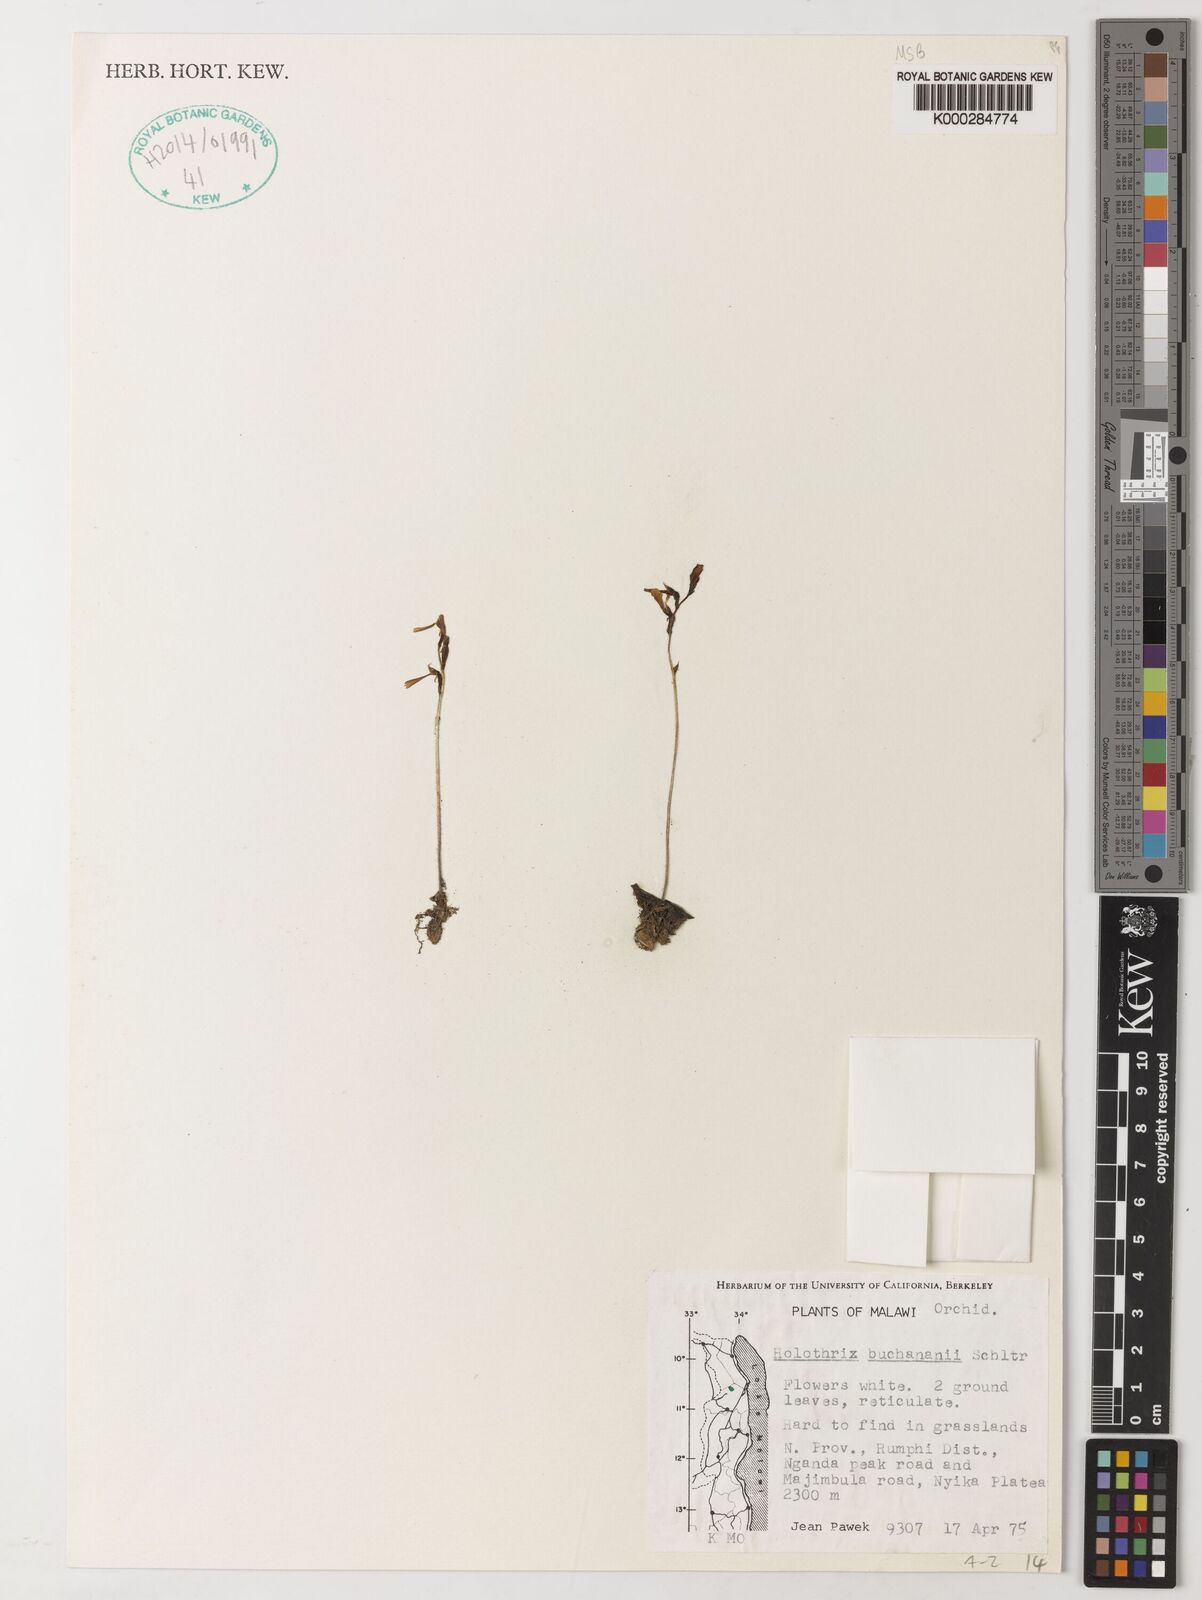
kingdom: Plantae
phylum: Tracheophyta
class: Liliopsida
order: Asparagales
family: Orchidaceae
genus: Holothrix
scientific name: Holothrix buchananii
